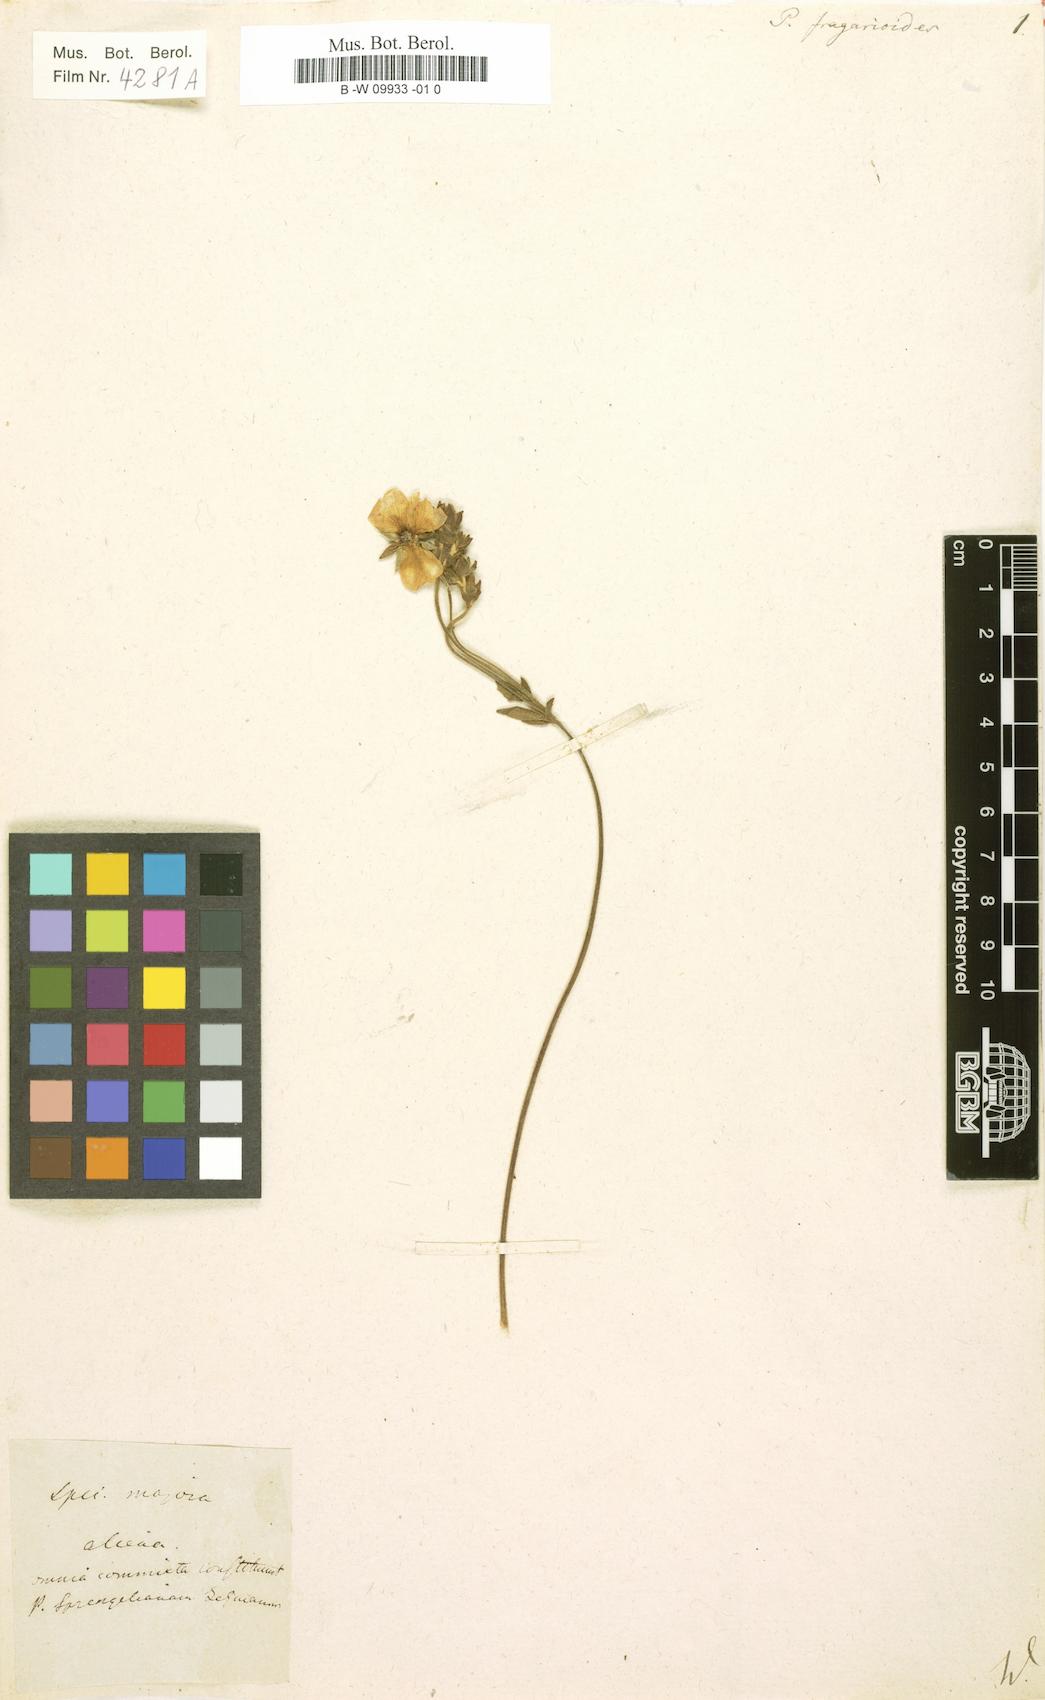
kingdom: Plantae
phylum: Tracheophyta
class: Magnoliopsida
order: Rosales
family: Rosaceae
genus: Potentilla
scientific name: Potentilla fragarioides
